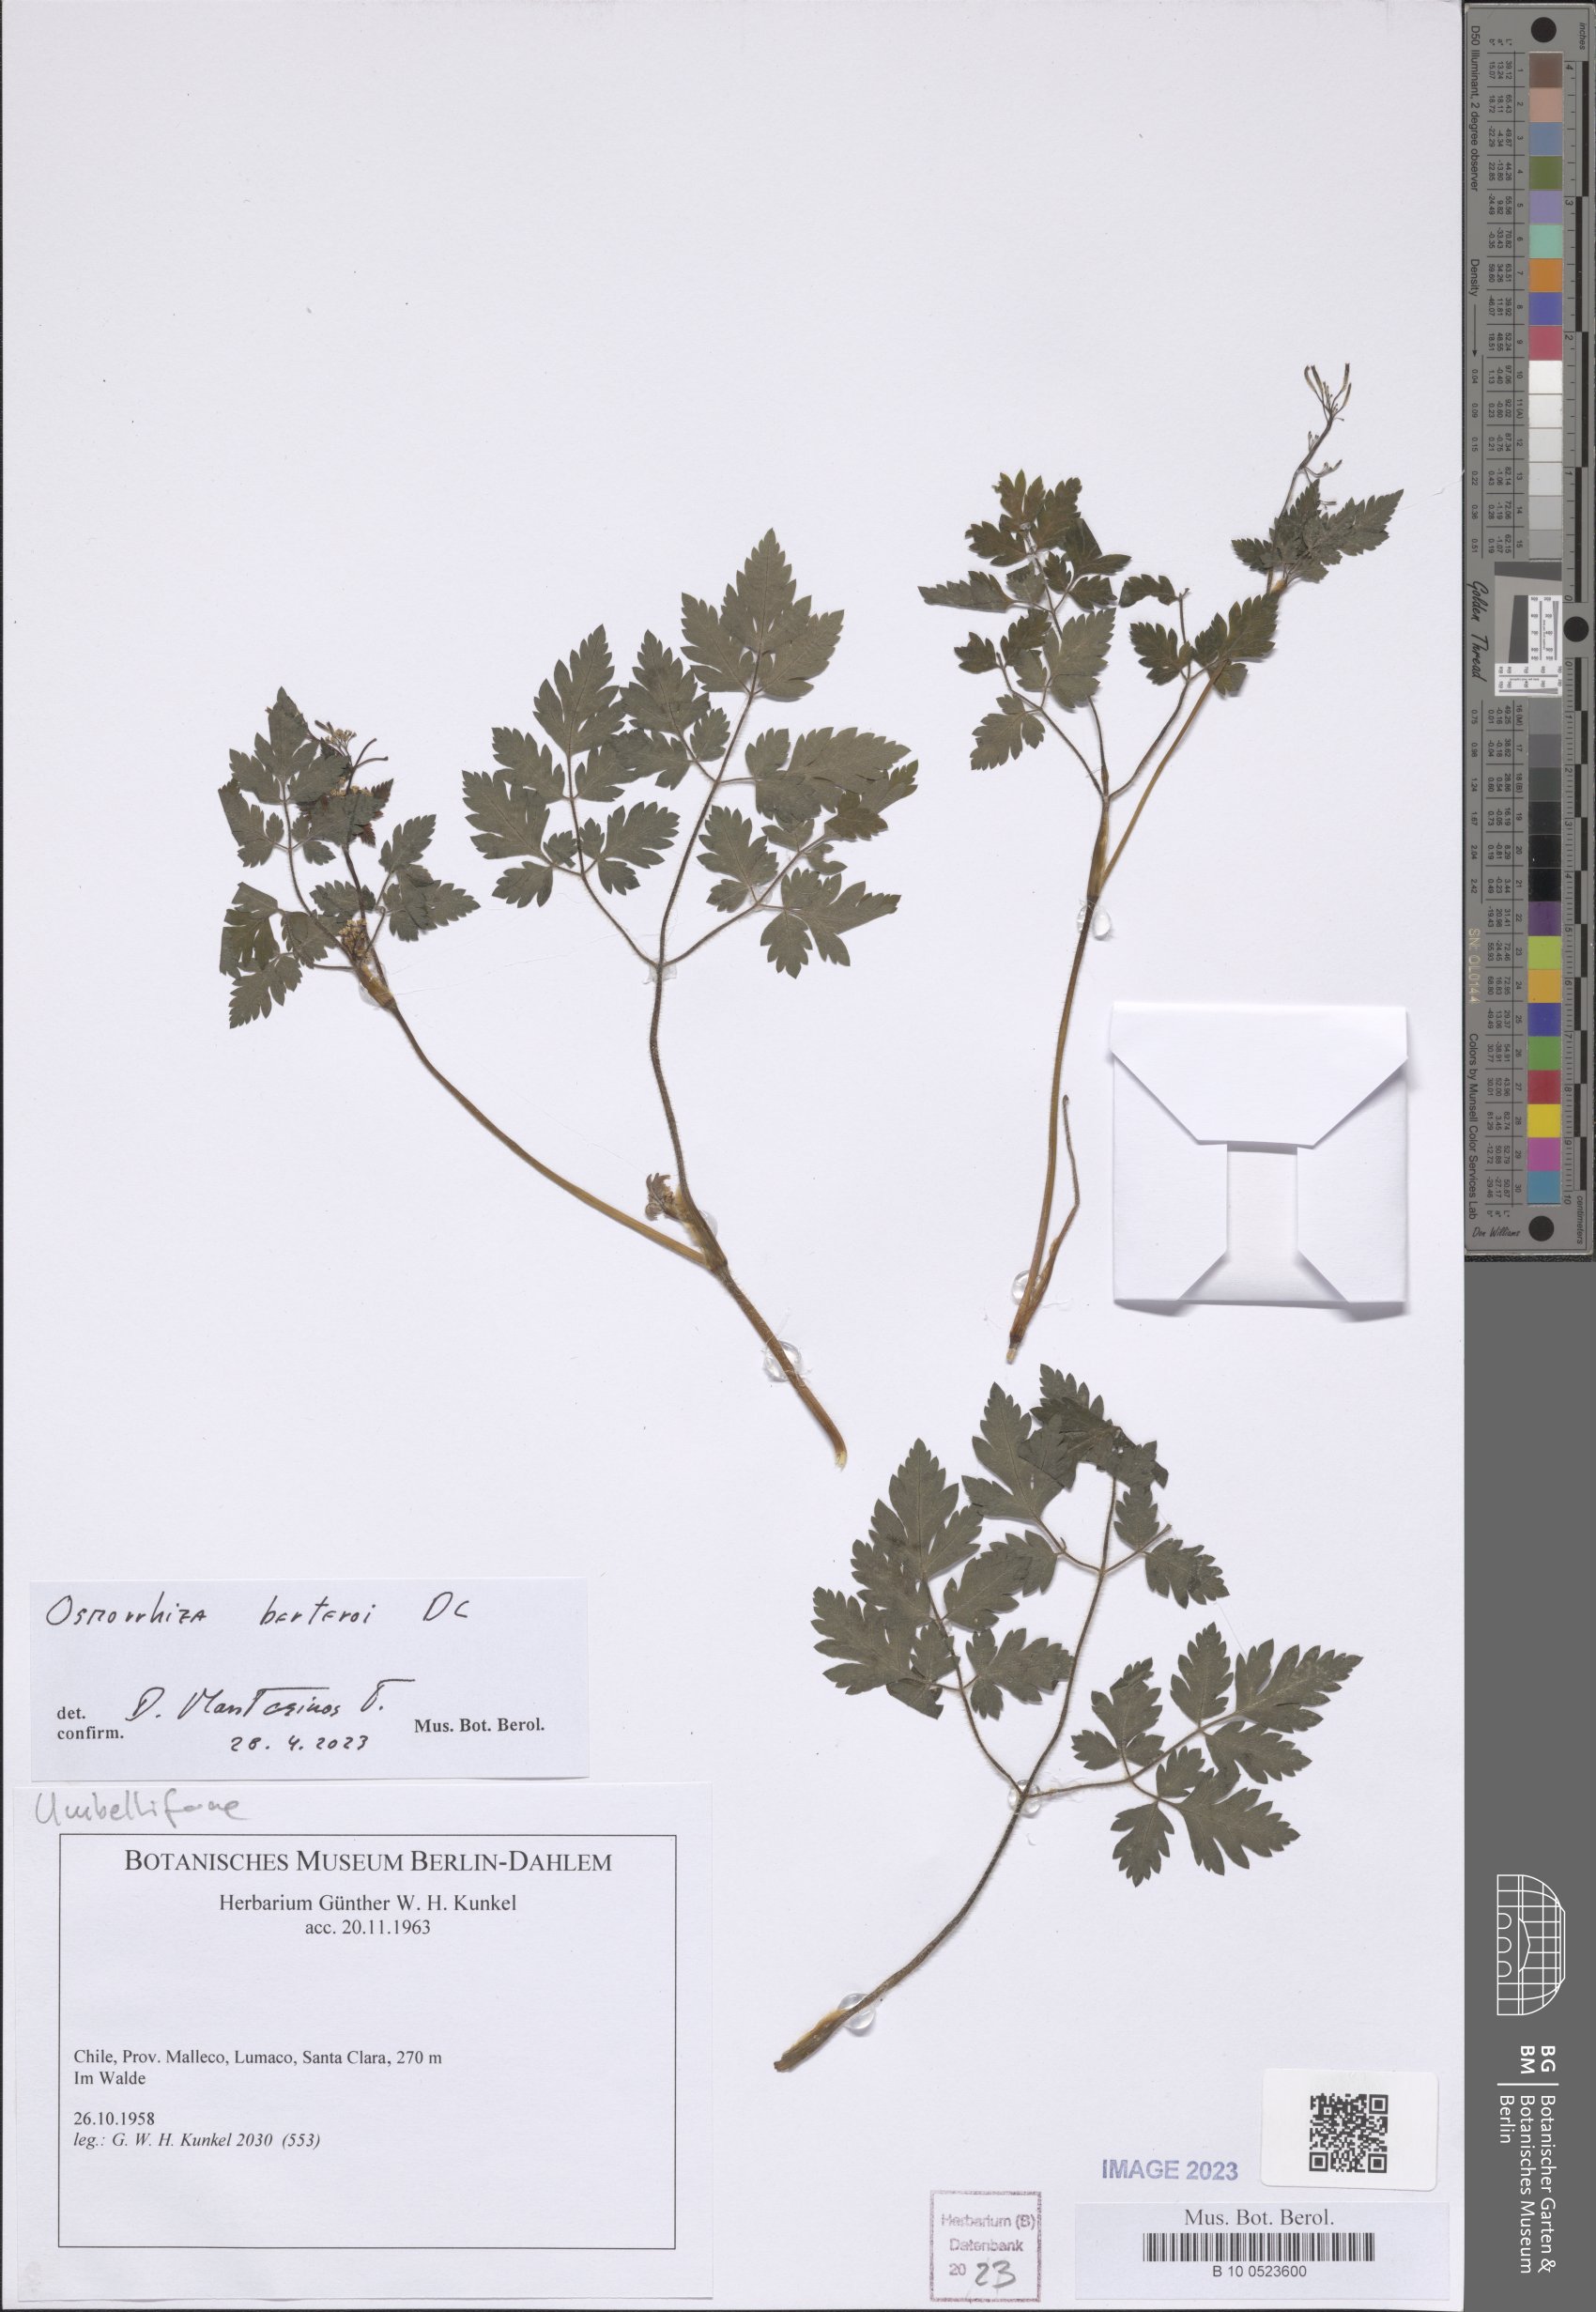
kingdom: Plantae
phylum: Tracheophyta
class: Magnoliopsida
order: Apiales
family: Apiaceae
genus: Osmorhiza
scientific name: Osmorhiza berteroi
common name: Mountain sweet cicely
